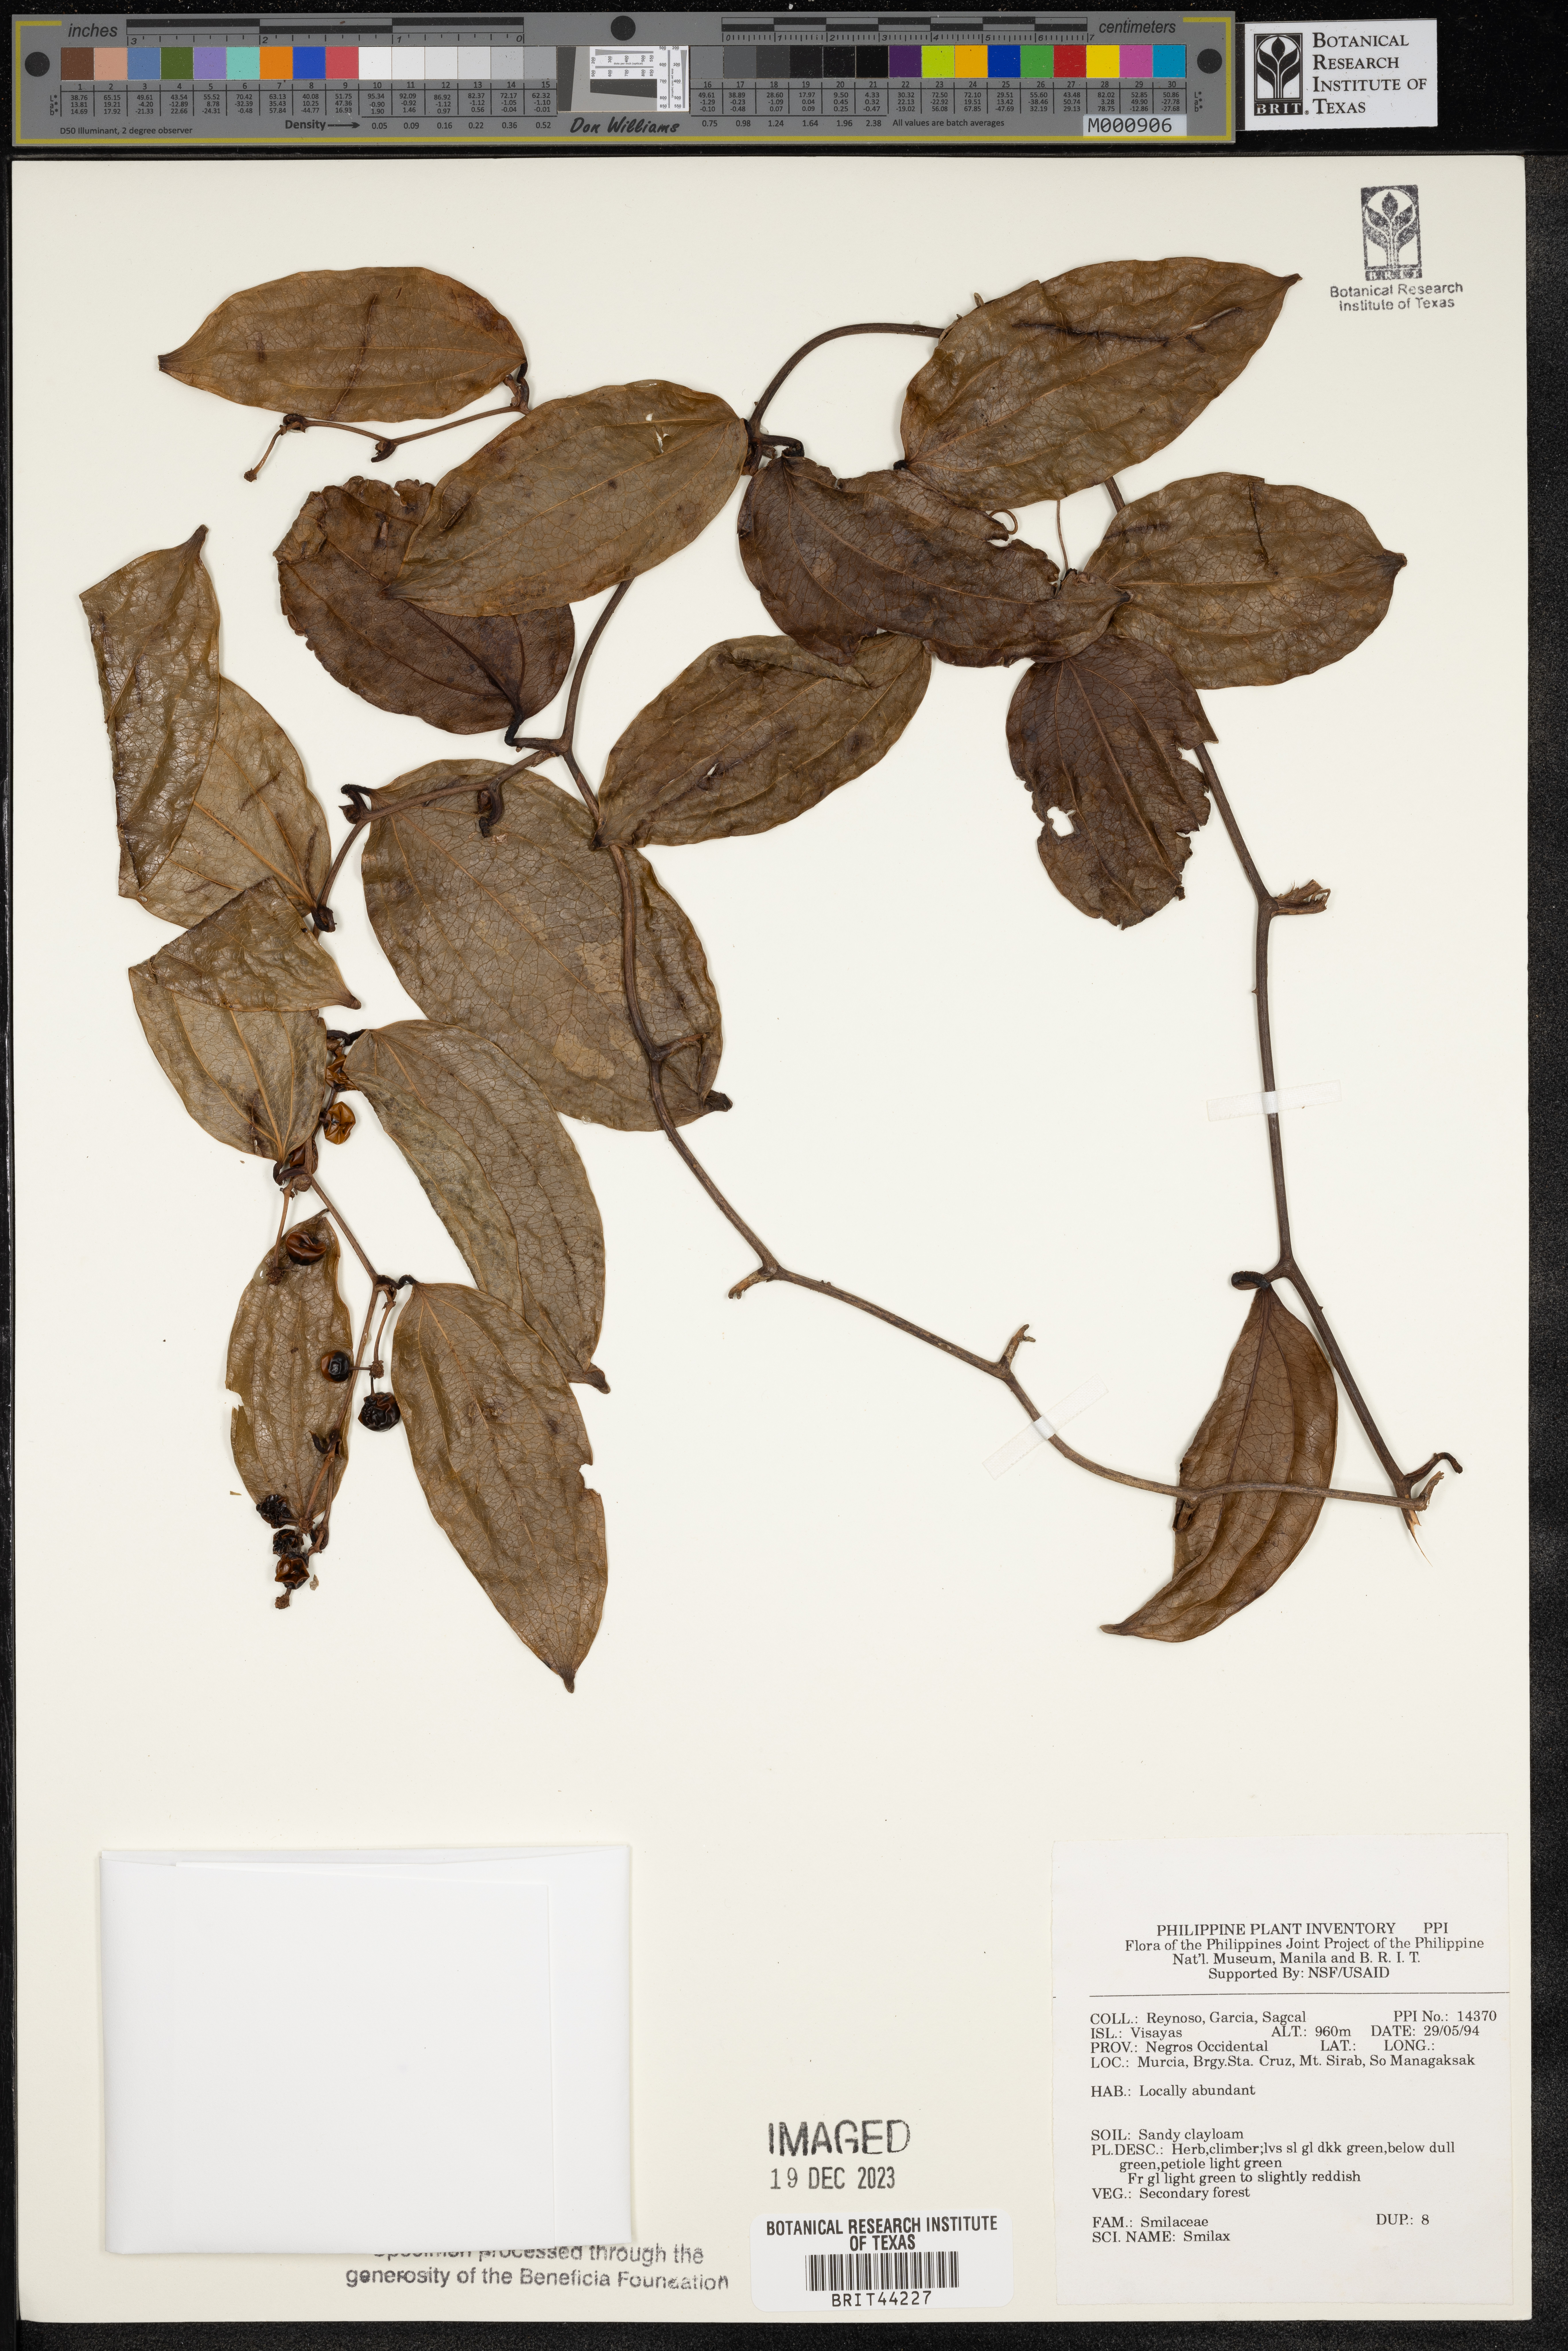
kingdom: Plantae
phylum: Tracheophyta
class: Liliopsida
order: Liliales
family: Smilacaceae
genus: Smilax
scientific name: Smilax
